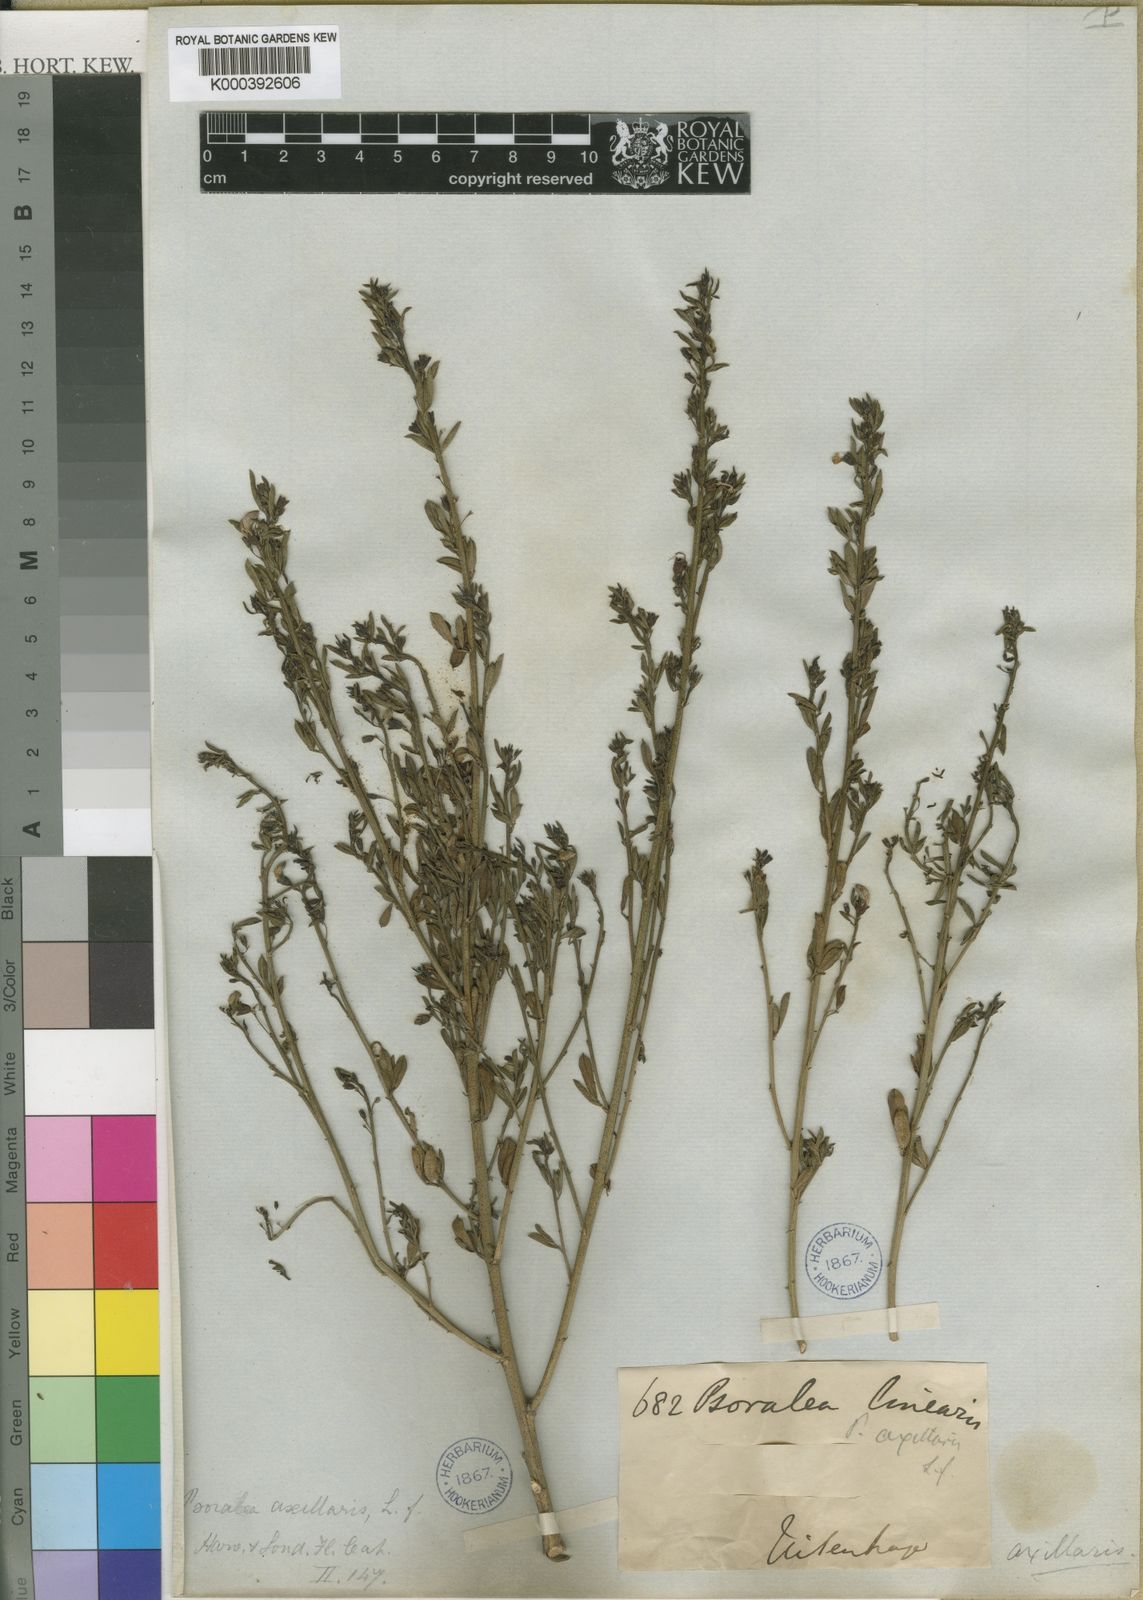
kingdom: Plantae
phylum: Tracheophyta
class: Magnoliopsida
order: Fabales
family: Fabaceae
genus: Psoralea
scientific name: Psoralea axillaris
